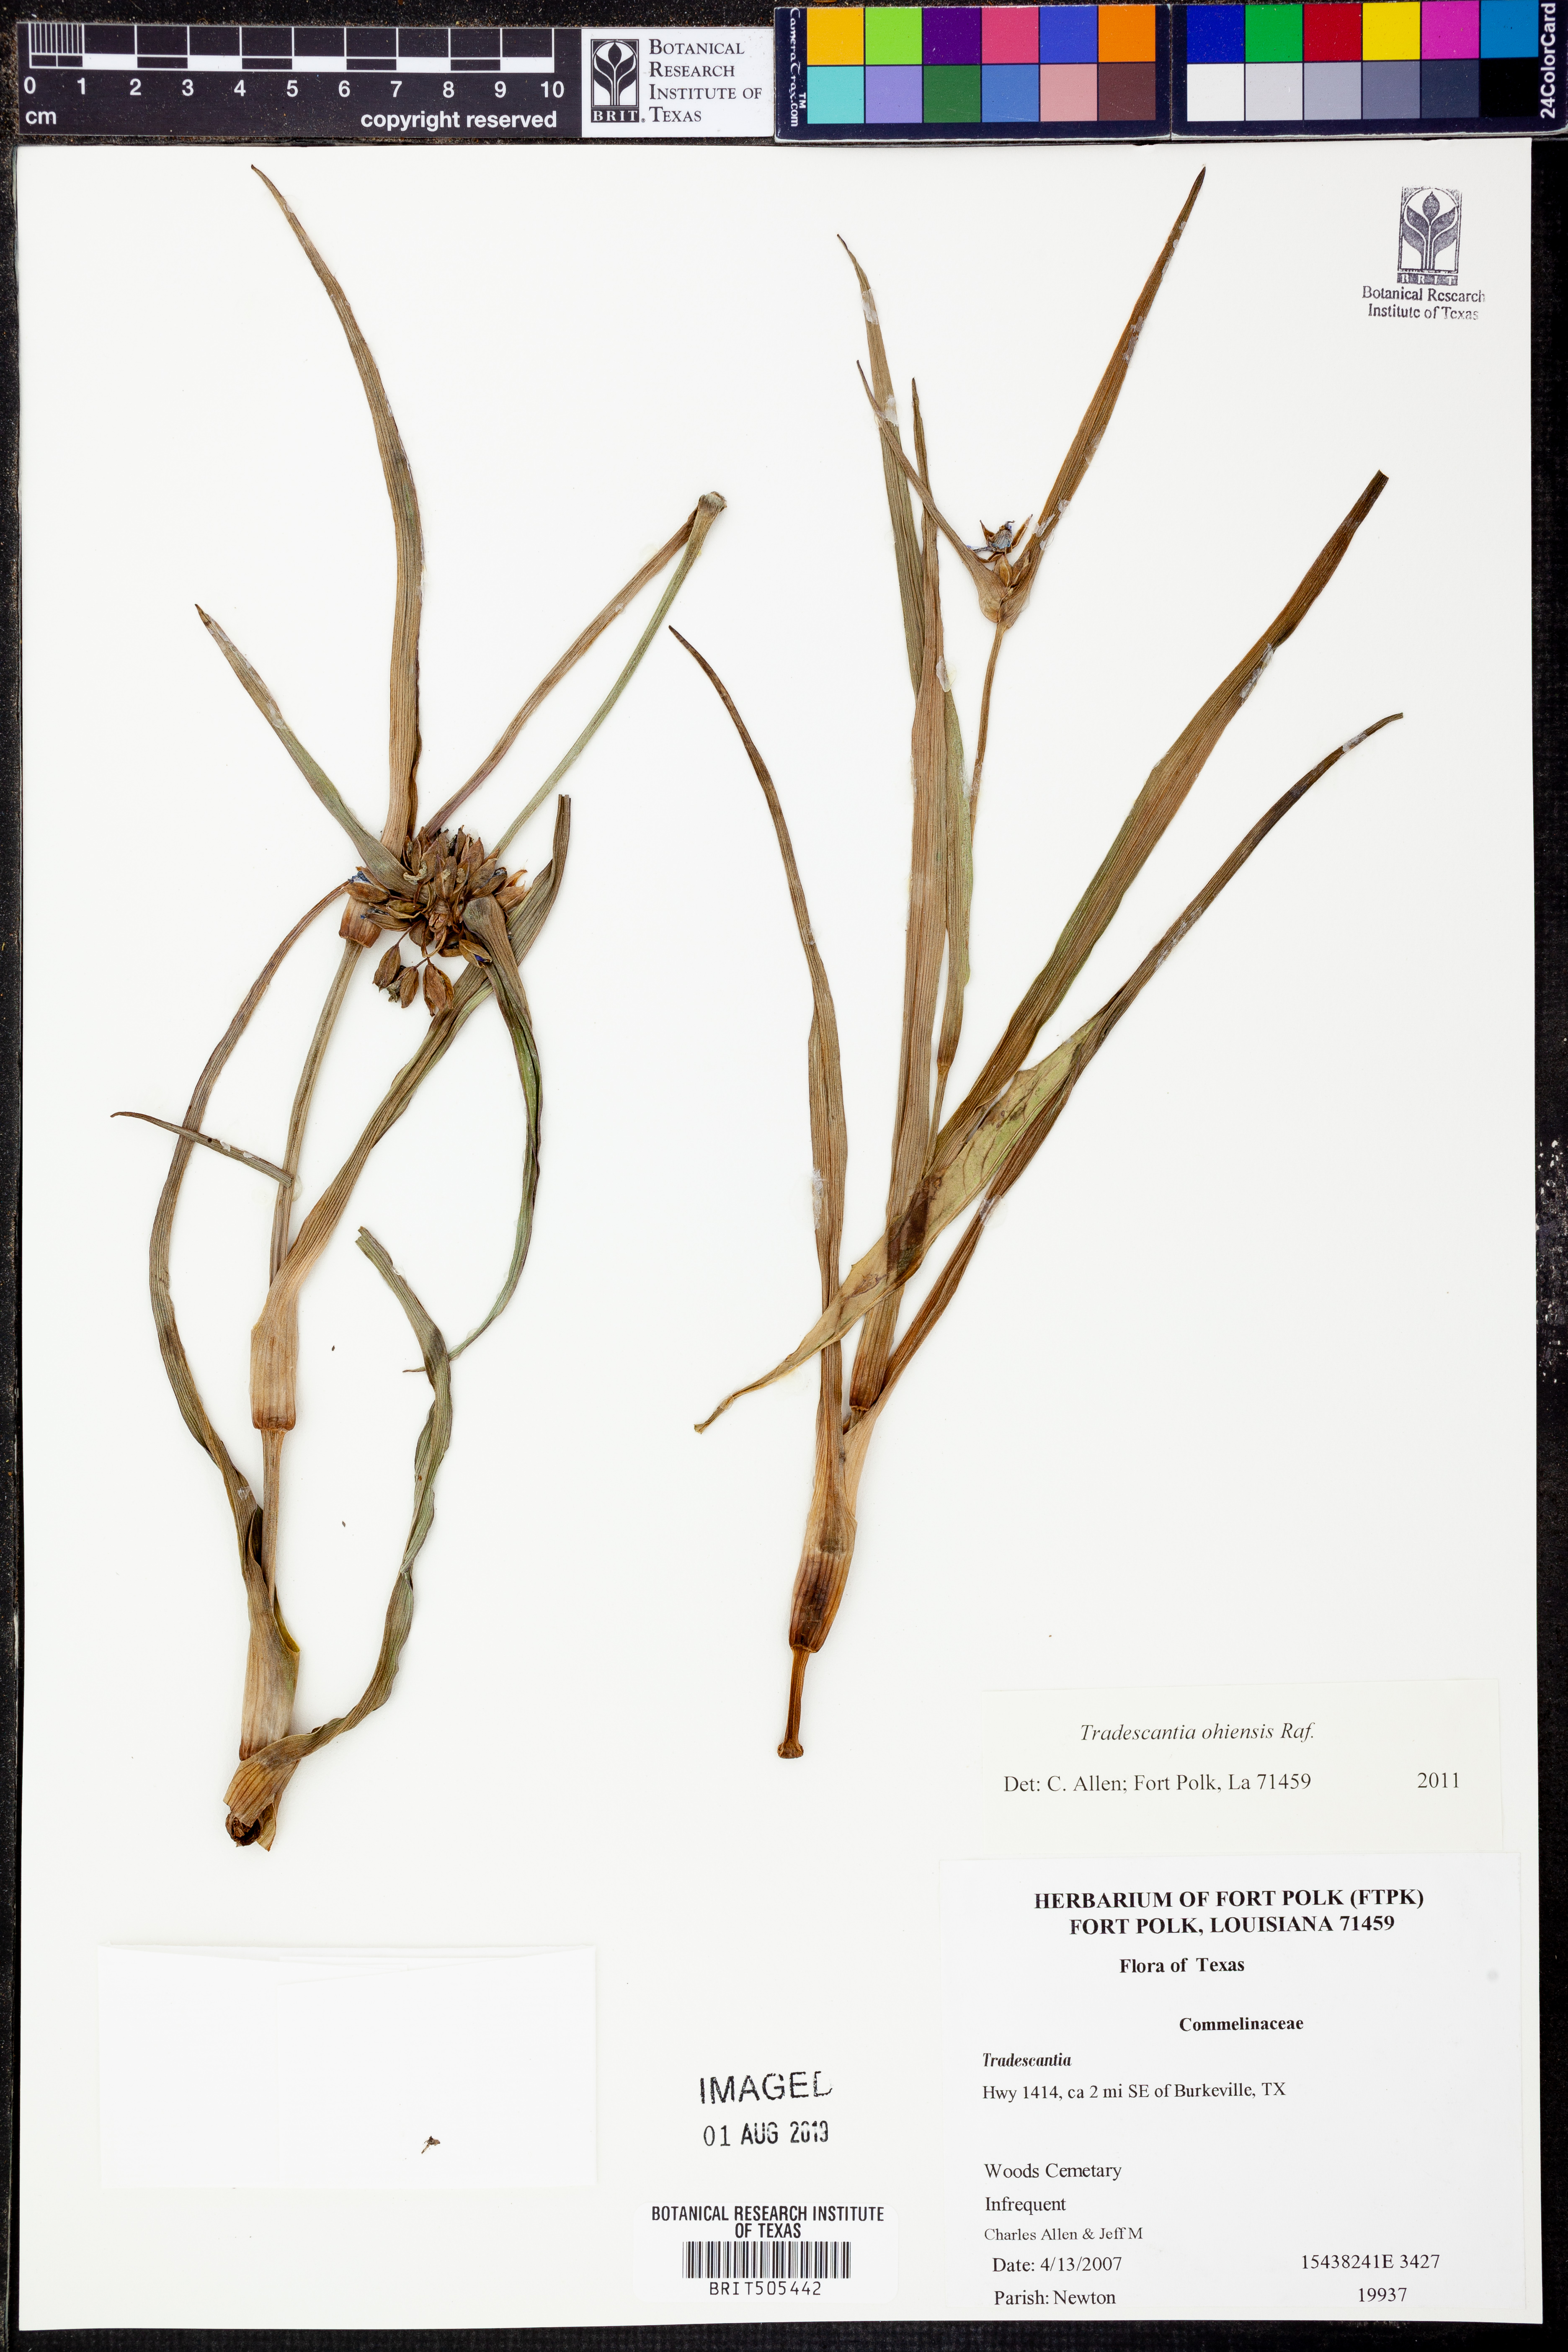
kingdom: Plantae
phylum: Tracheophyta
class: Liliopsida
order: Commelinales
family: Commelinaceae
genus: Tradescantia
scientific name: Tradescantia ohiensis
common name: Ohio spiderwort
